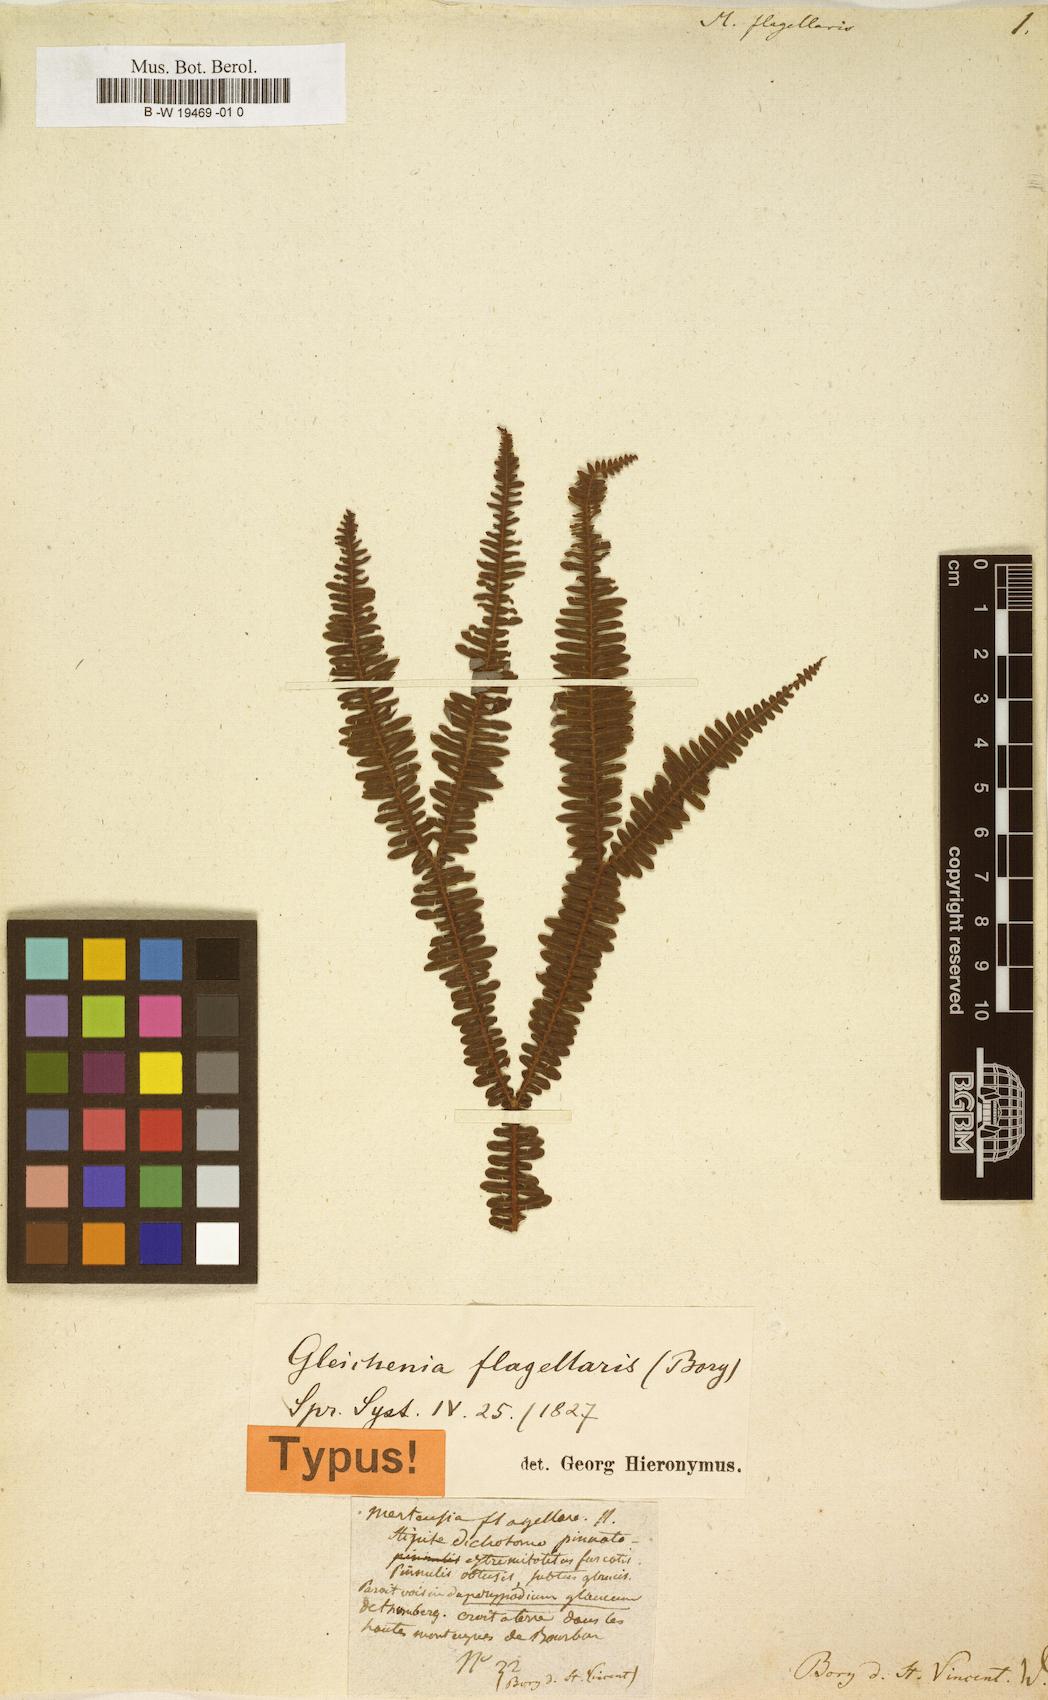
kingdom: Plantae
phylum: Tracheophyta
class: Polypodiopsida
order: Gleicheniales
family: Gleicheniaceae
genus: Sticherus
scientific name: Sticherus flagellaris
